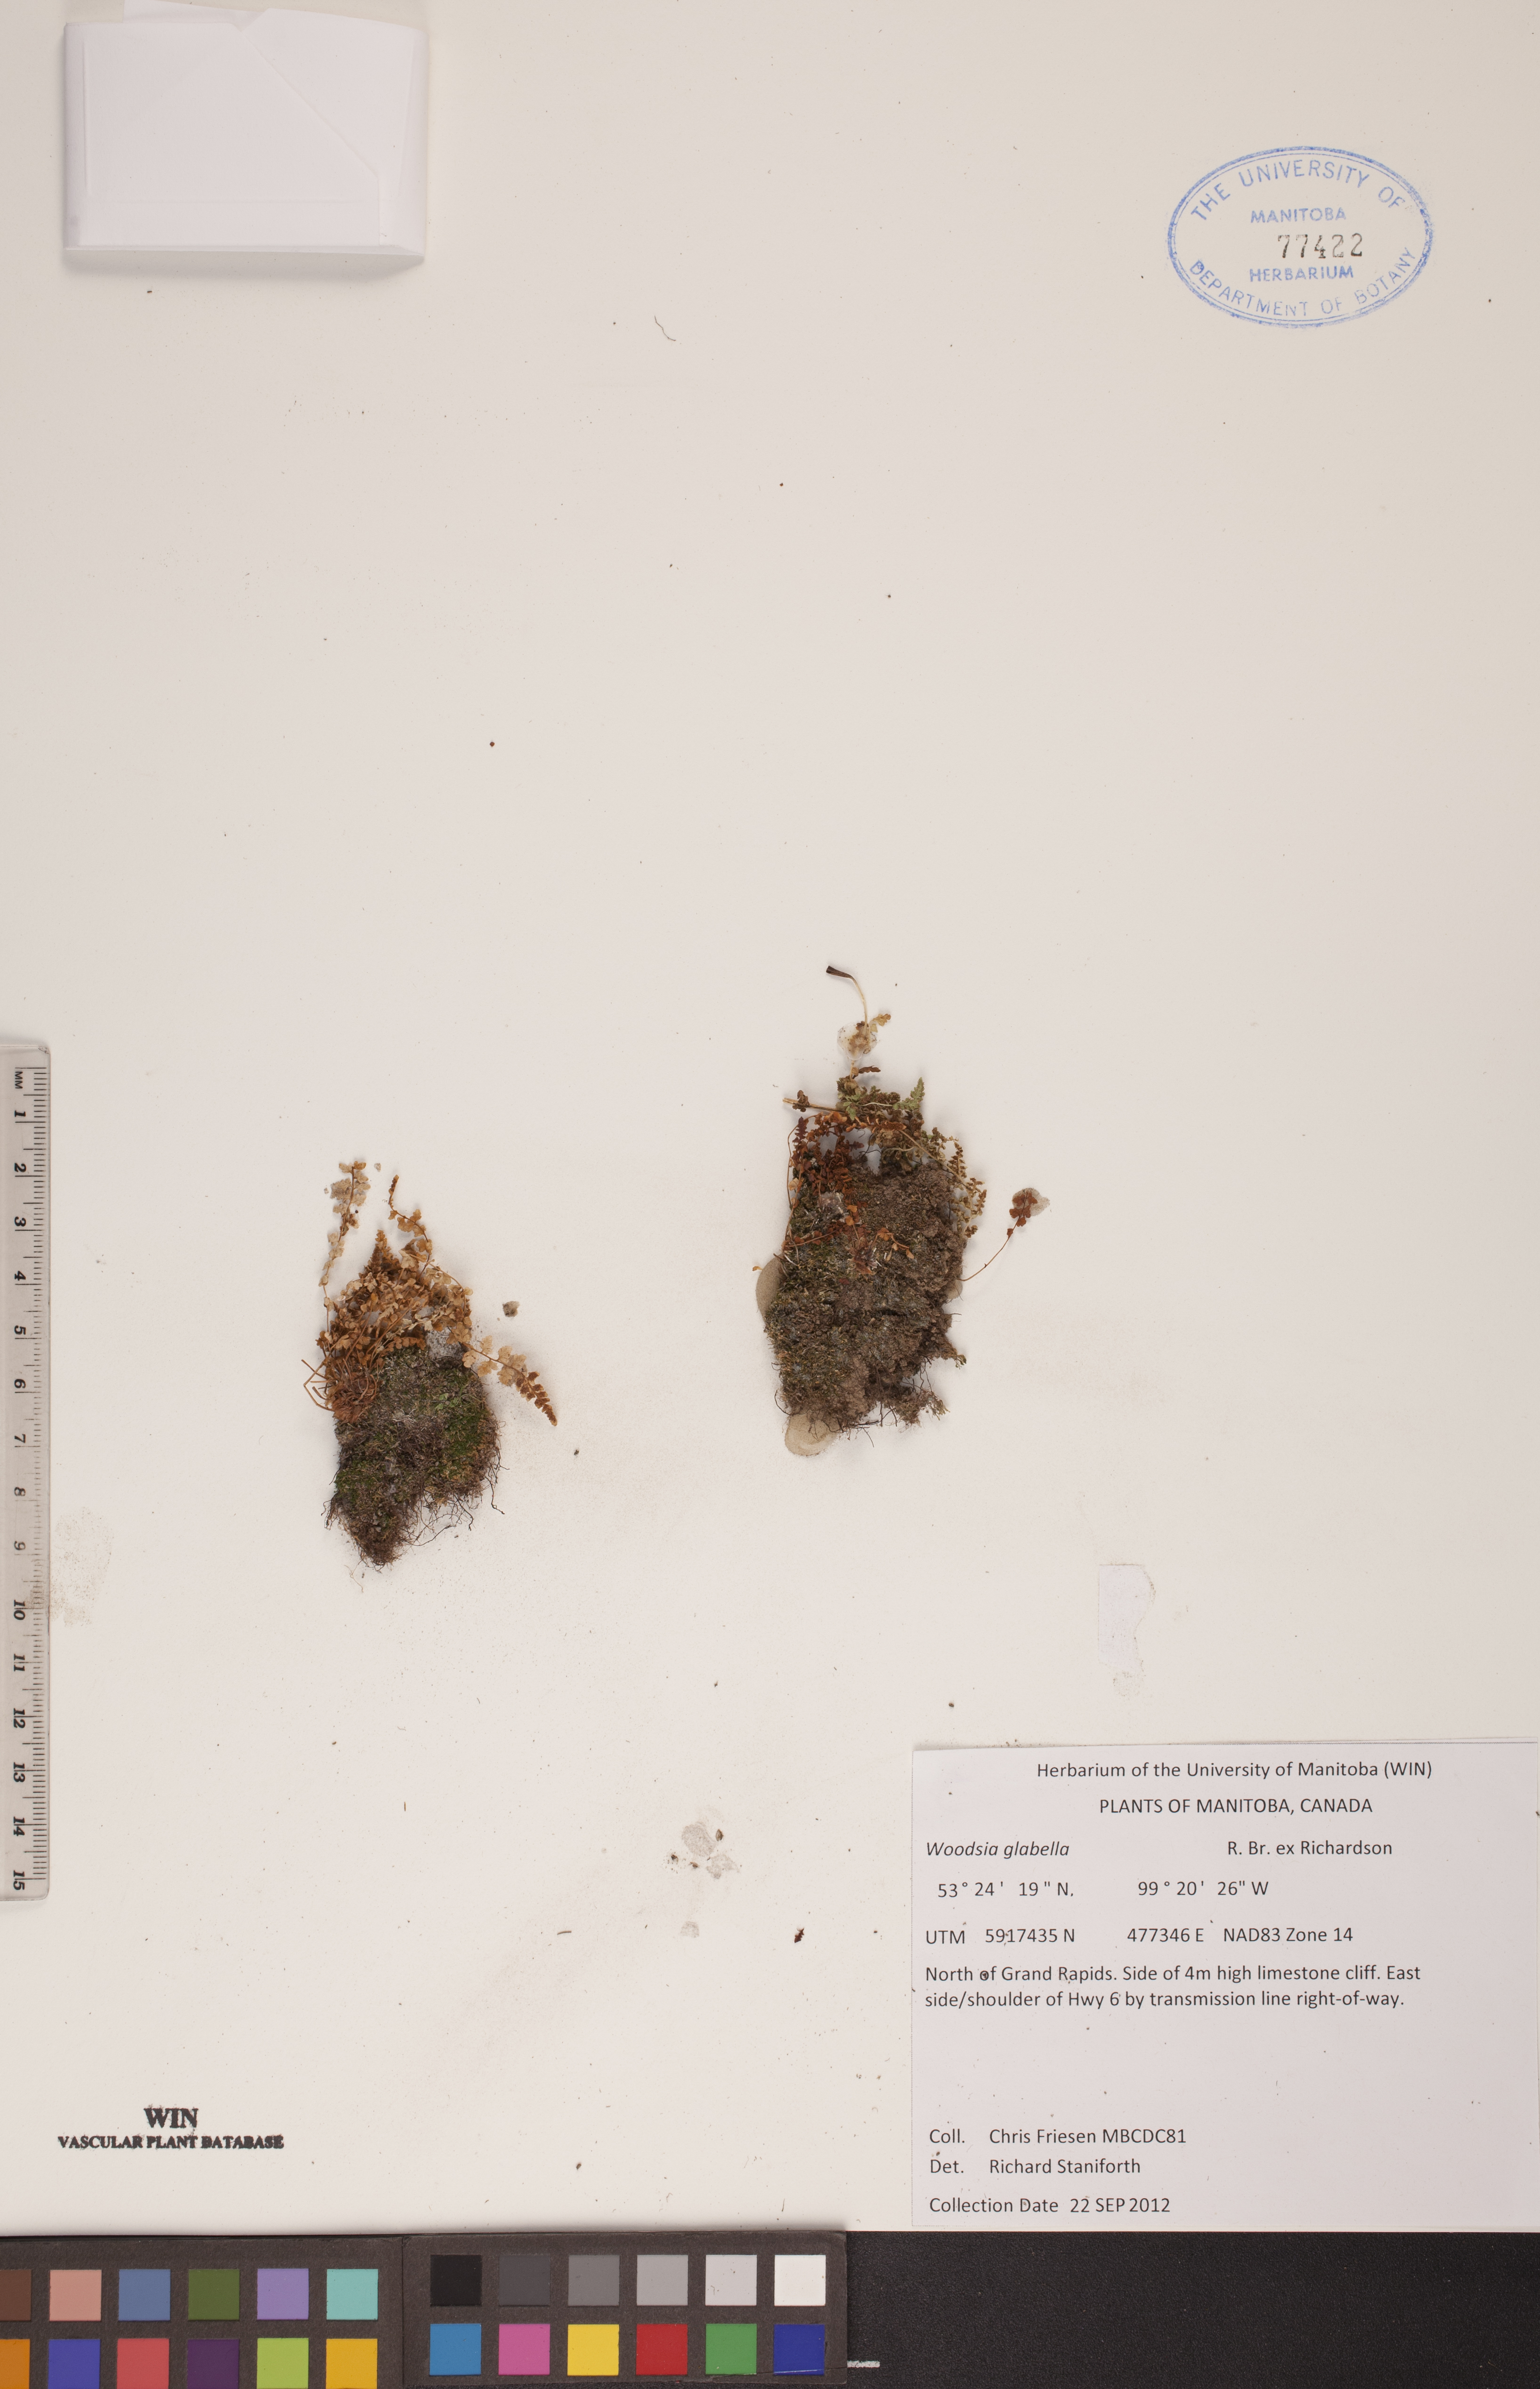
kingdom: Plantae
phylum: Tracheophyta
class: Polypodiopsida
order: Polypodiales
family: Woodsiaceae
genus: Woodsia
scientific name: Woodsia glabella
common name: Smooth woodsia
